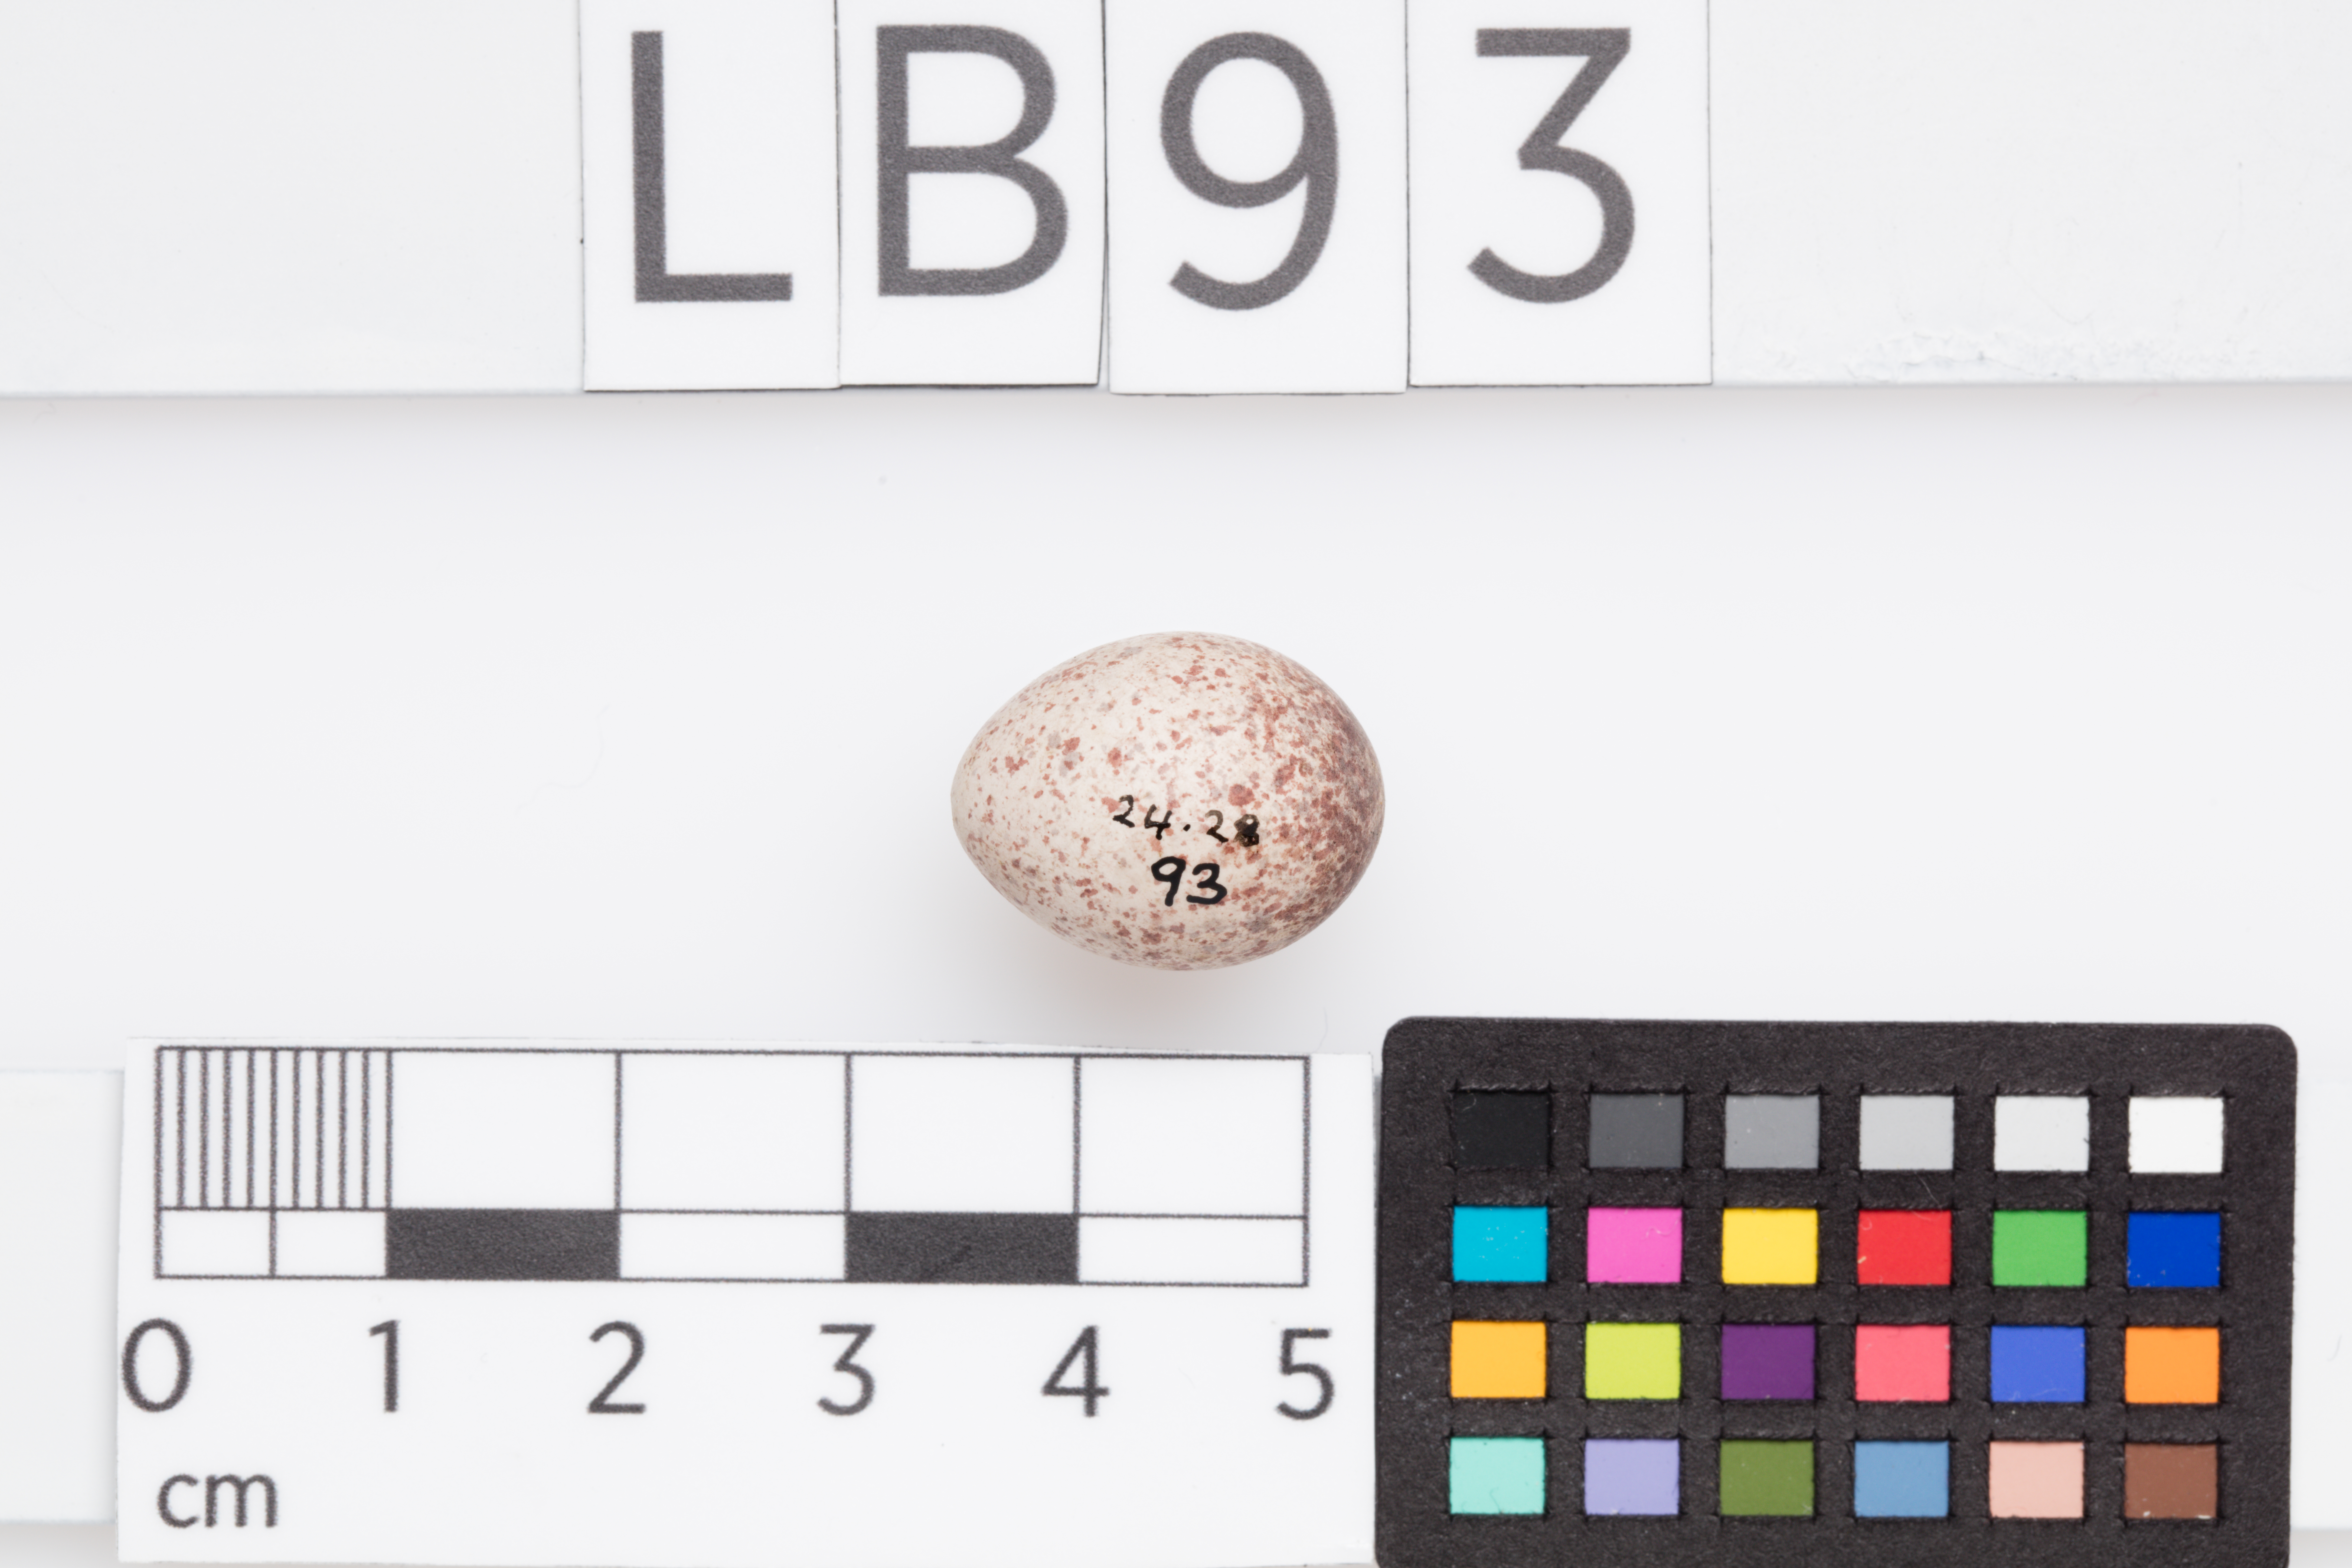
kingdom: Animalia
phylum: Chordata
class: Aves
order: Passeriformes
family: Locustellidae
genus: Megalurus
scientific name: Megalurus punctatus
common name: New zealand fernbird
